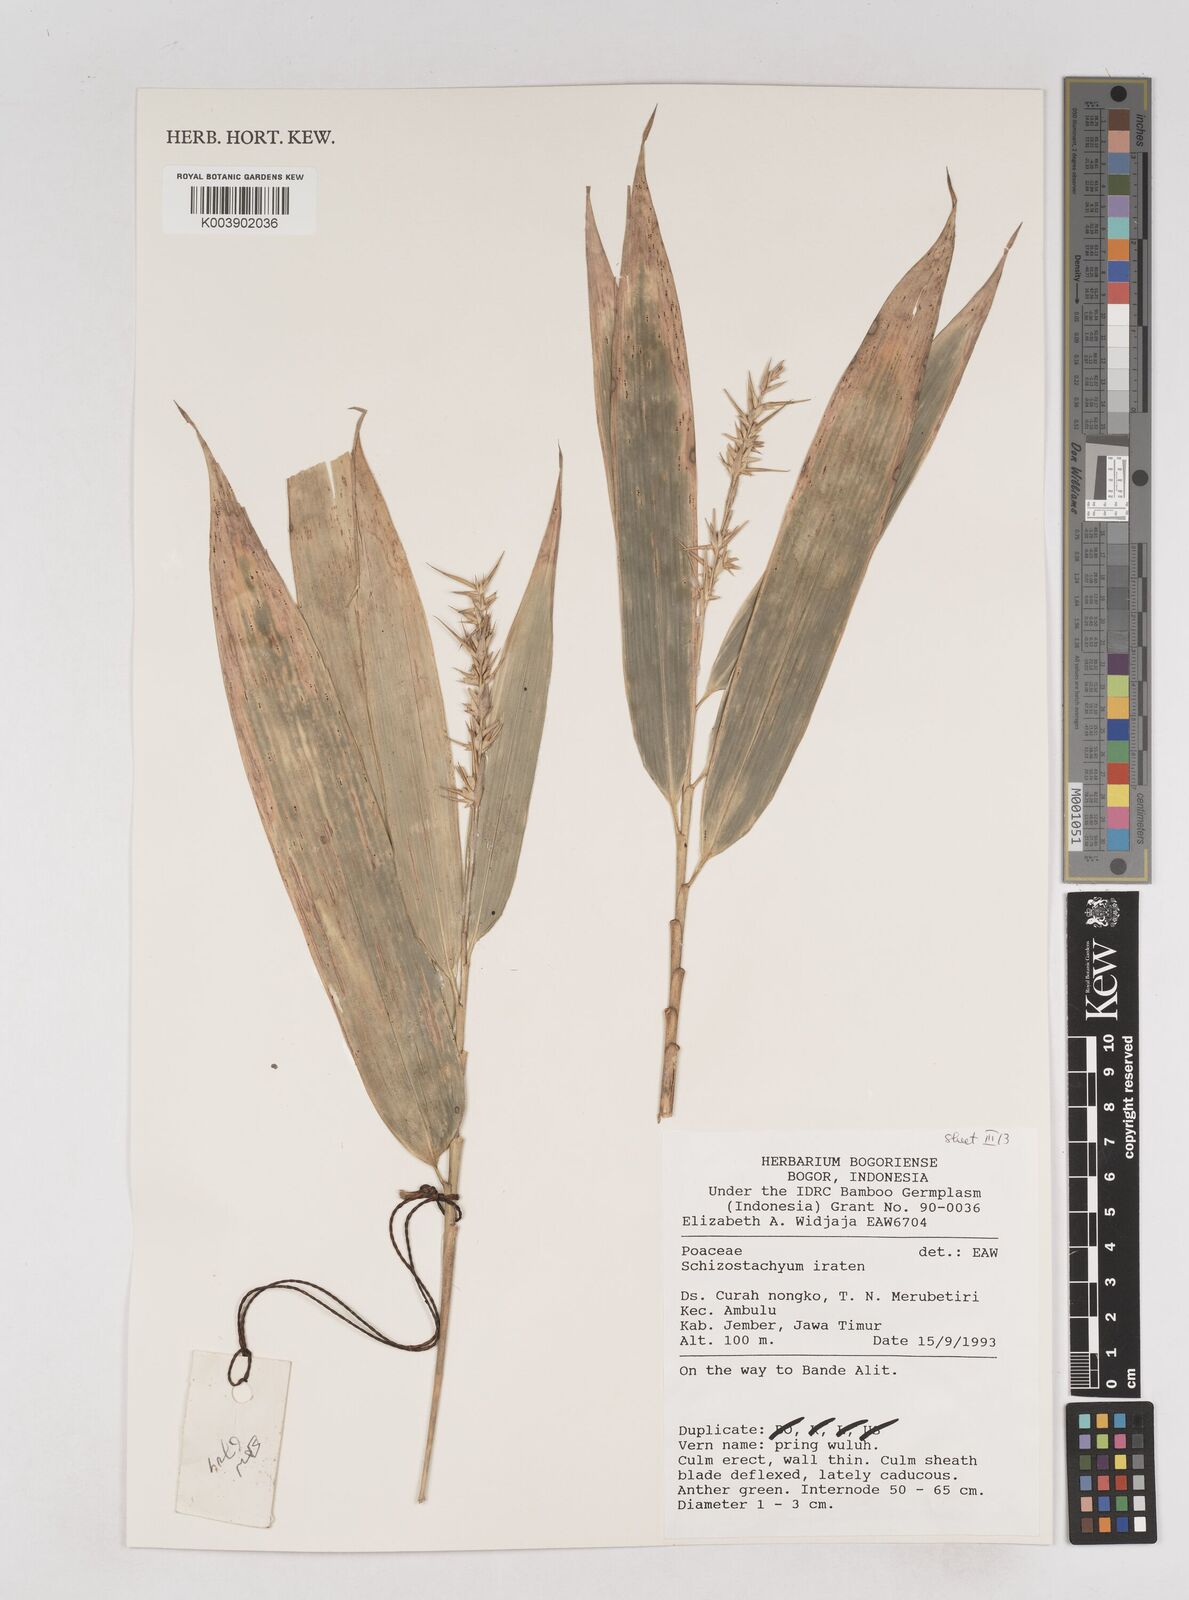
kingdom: Plantae
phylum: Tracheophyta
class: Liliopsida
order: Poales
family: Poaceae
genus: Schizostachyum
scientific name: Schizostachyum iraten
